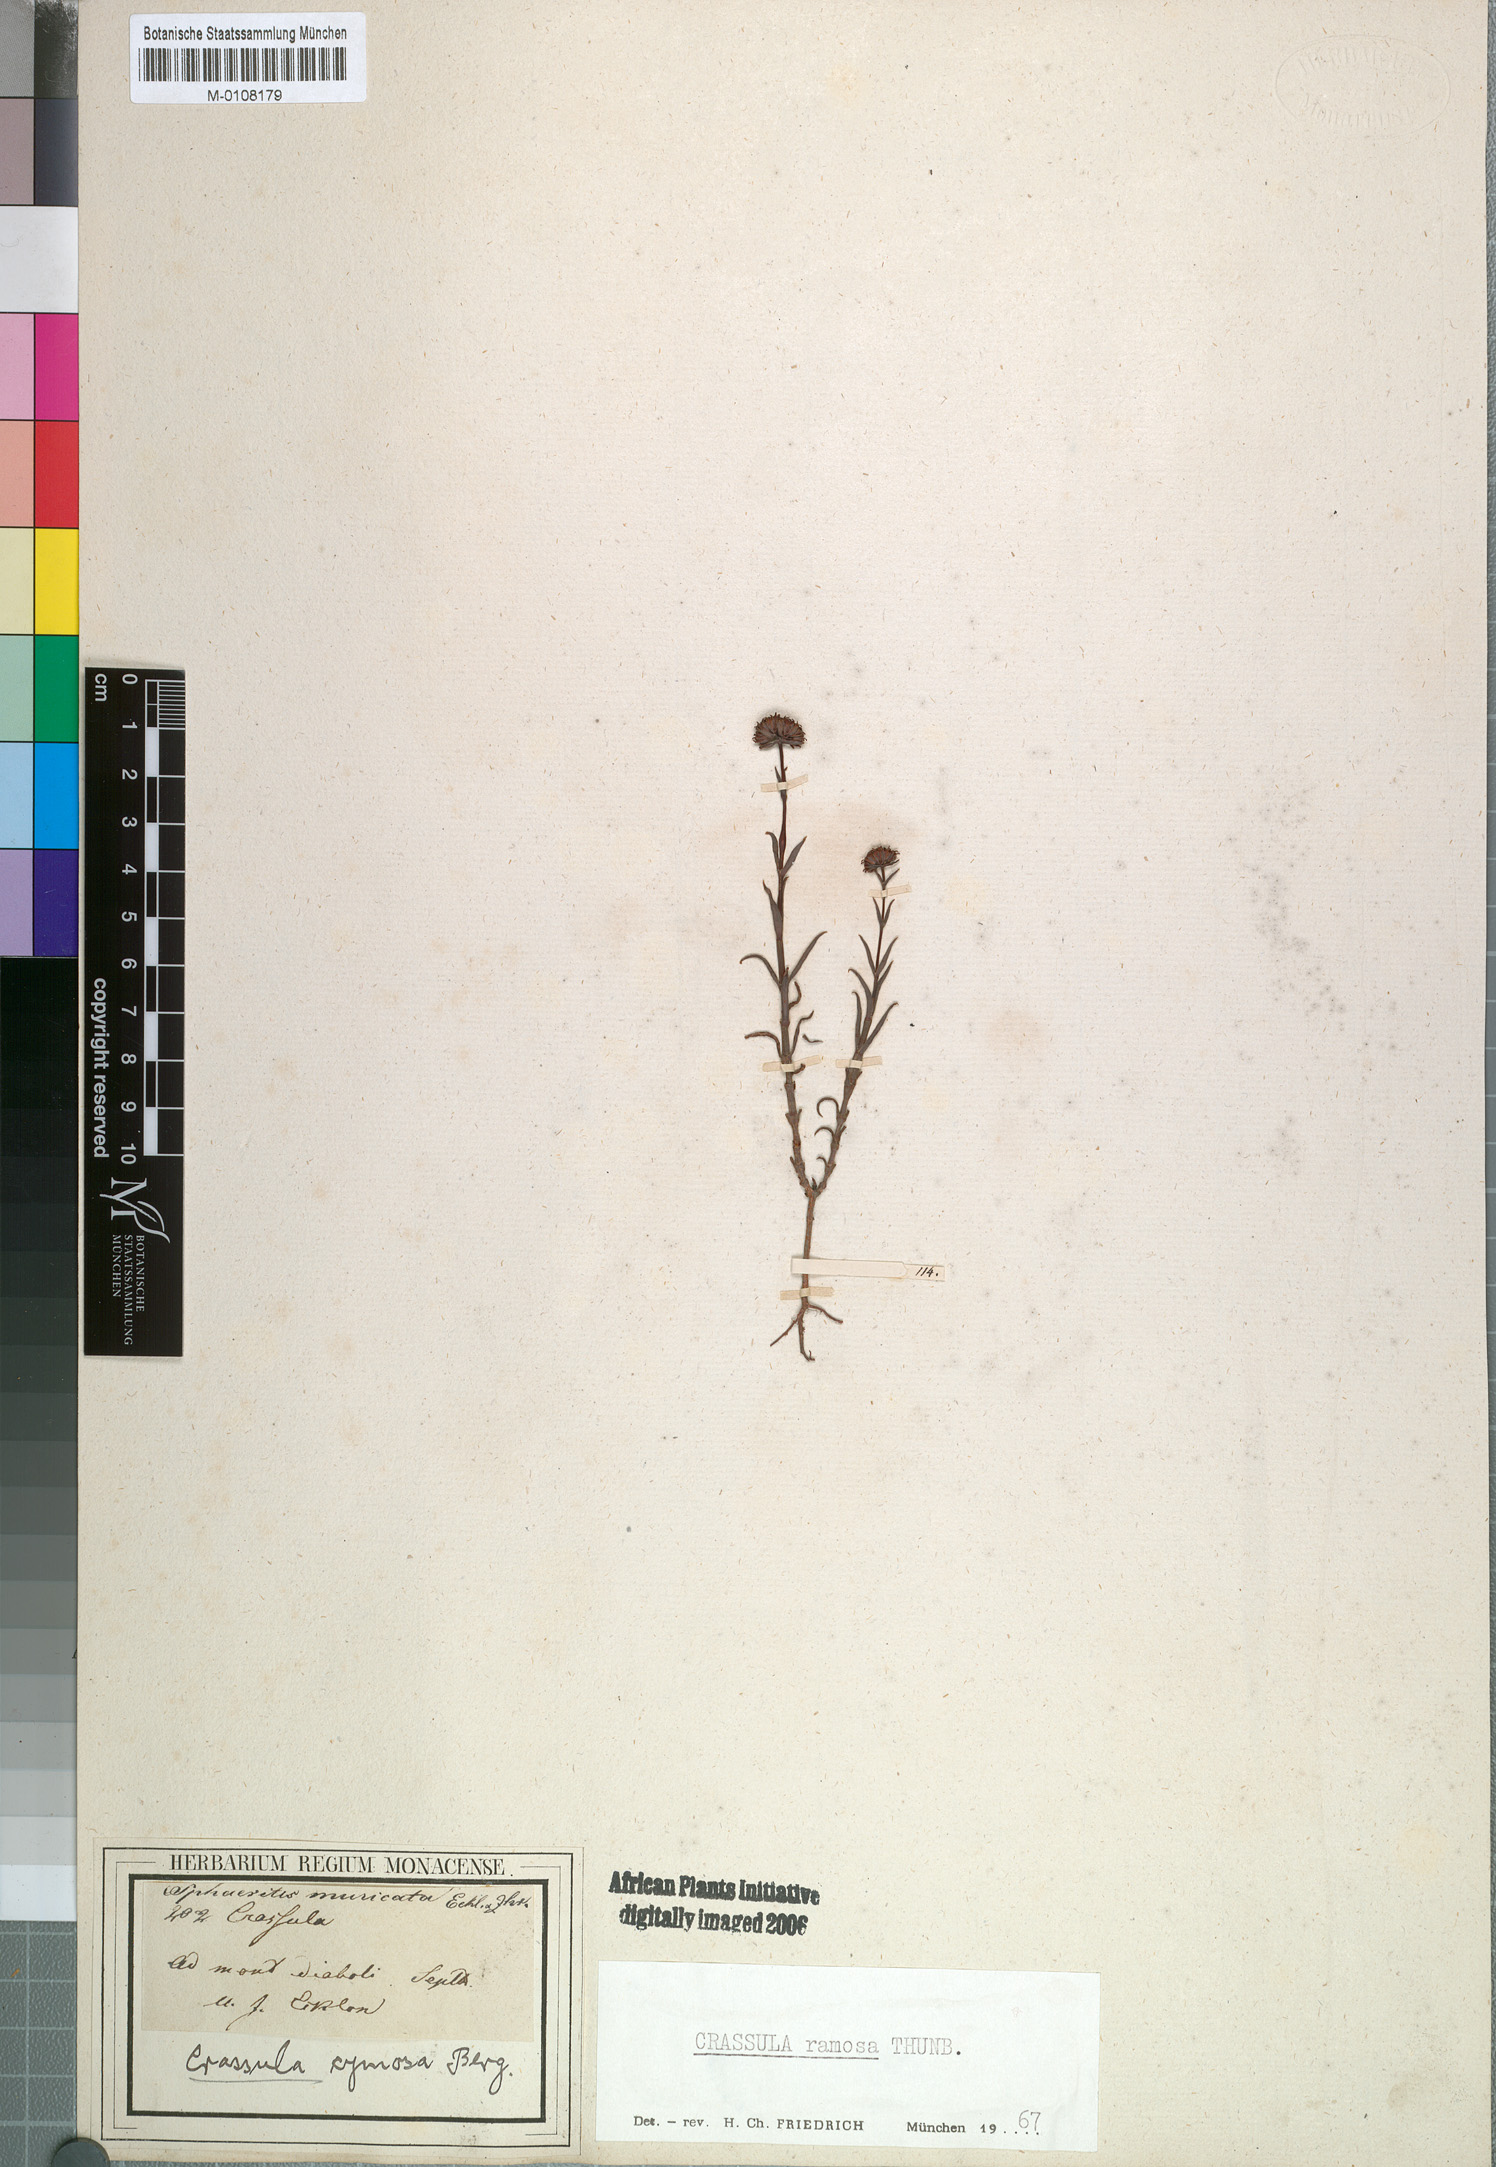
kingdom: Plantae
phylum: Tracheophyta
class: Magnoliopsida
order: Saxifragales
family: Crassulaceae
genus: Crassula
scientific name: Crassula subulata
